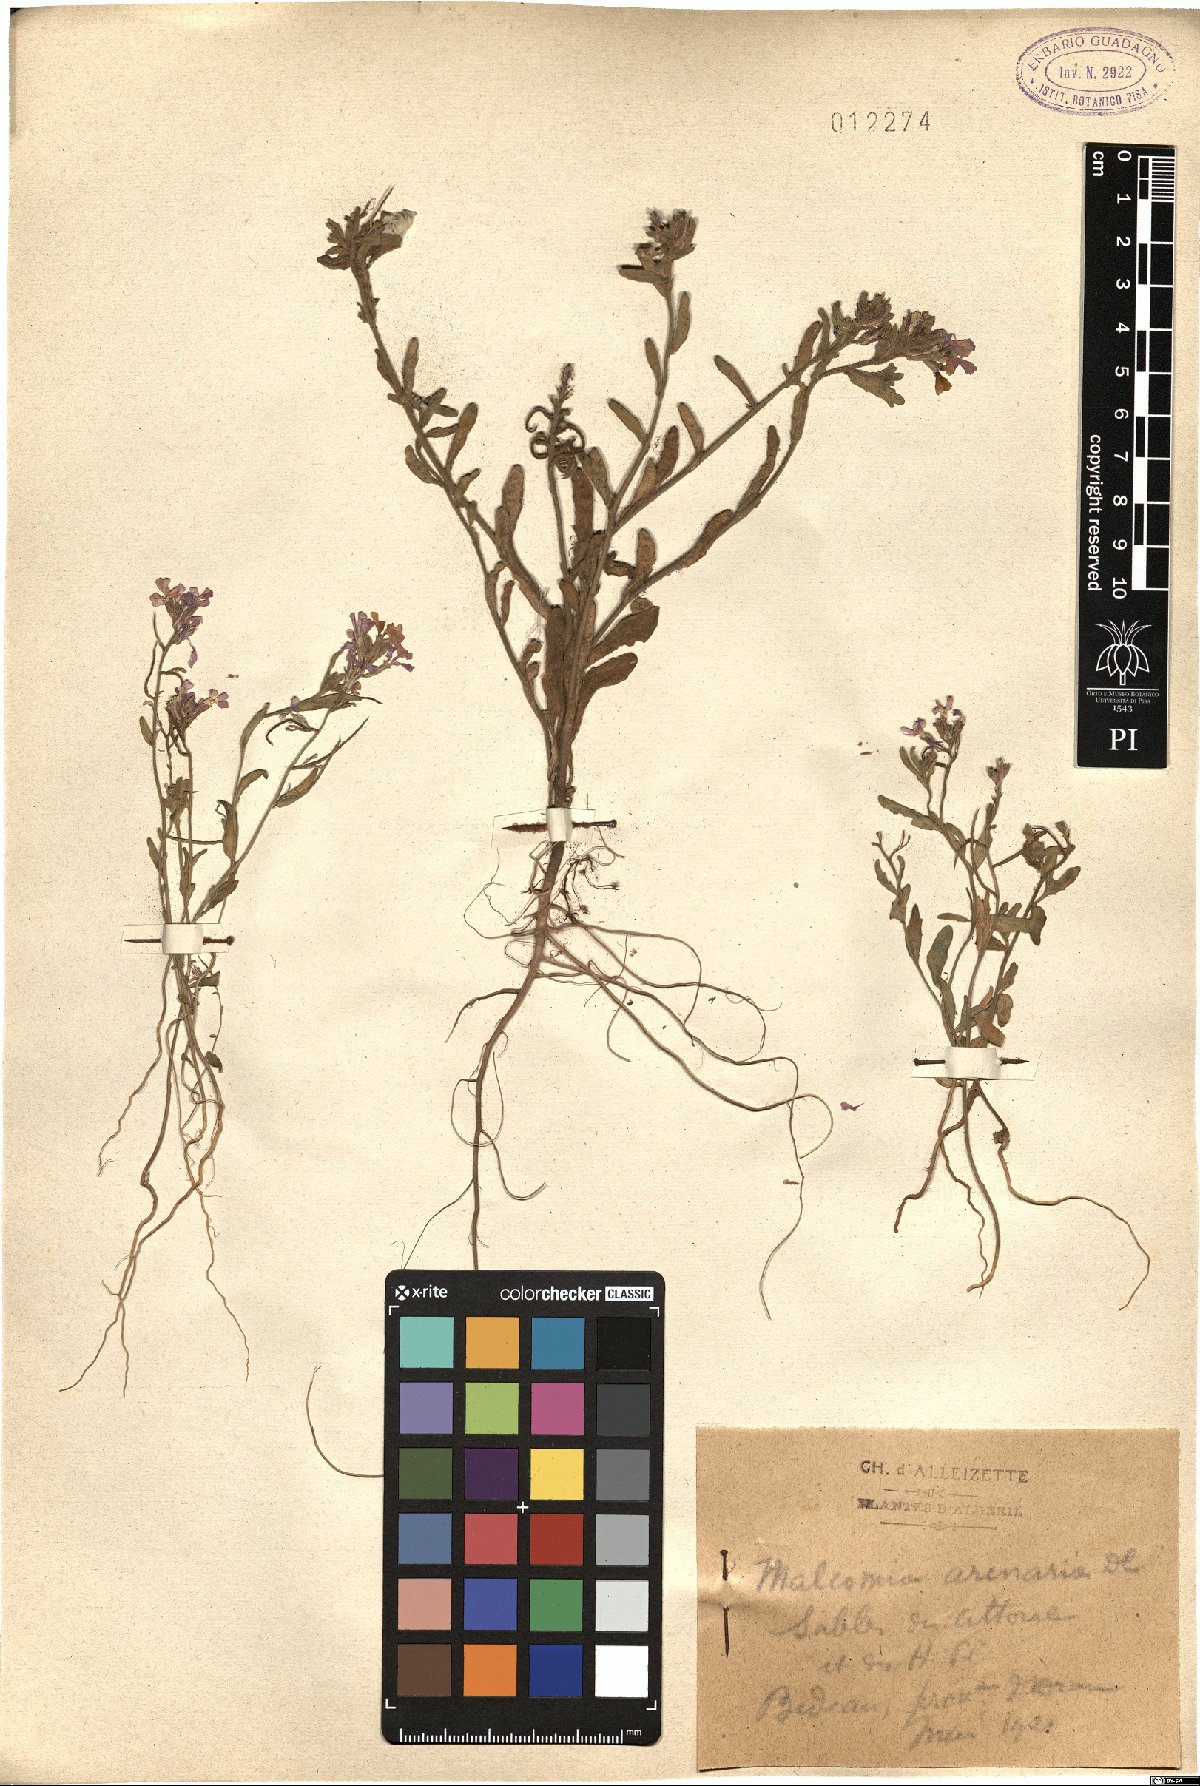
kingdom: Plantae
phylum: Tracheophyta
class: Magnoliopsida
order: Brassicales
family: Brassicaceae
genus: Marcuskochia
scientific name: Marcuskochia arenaria
